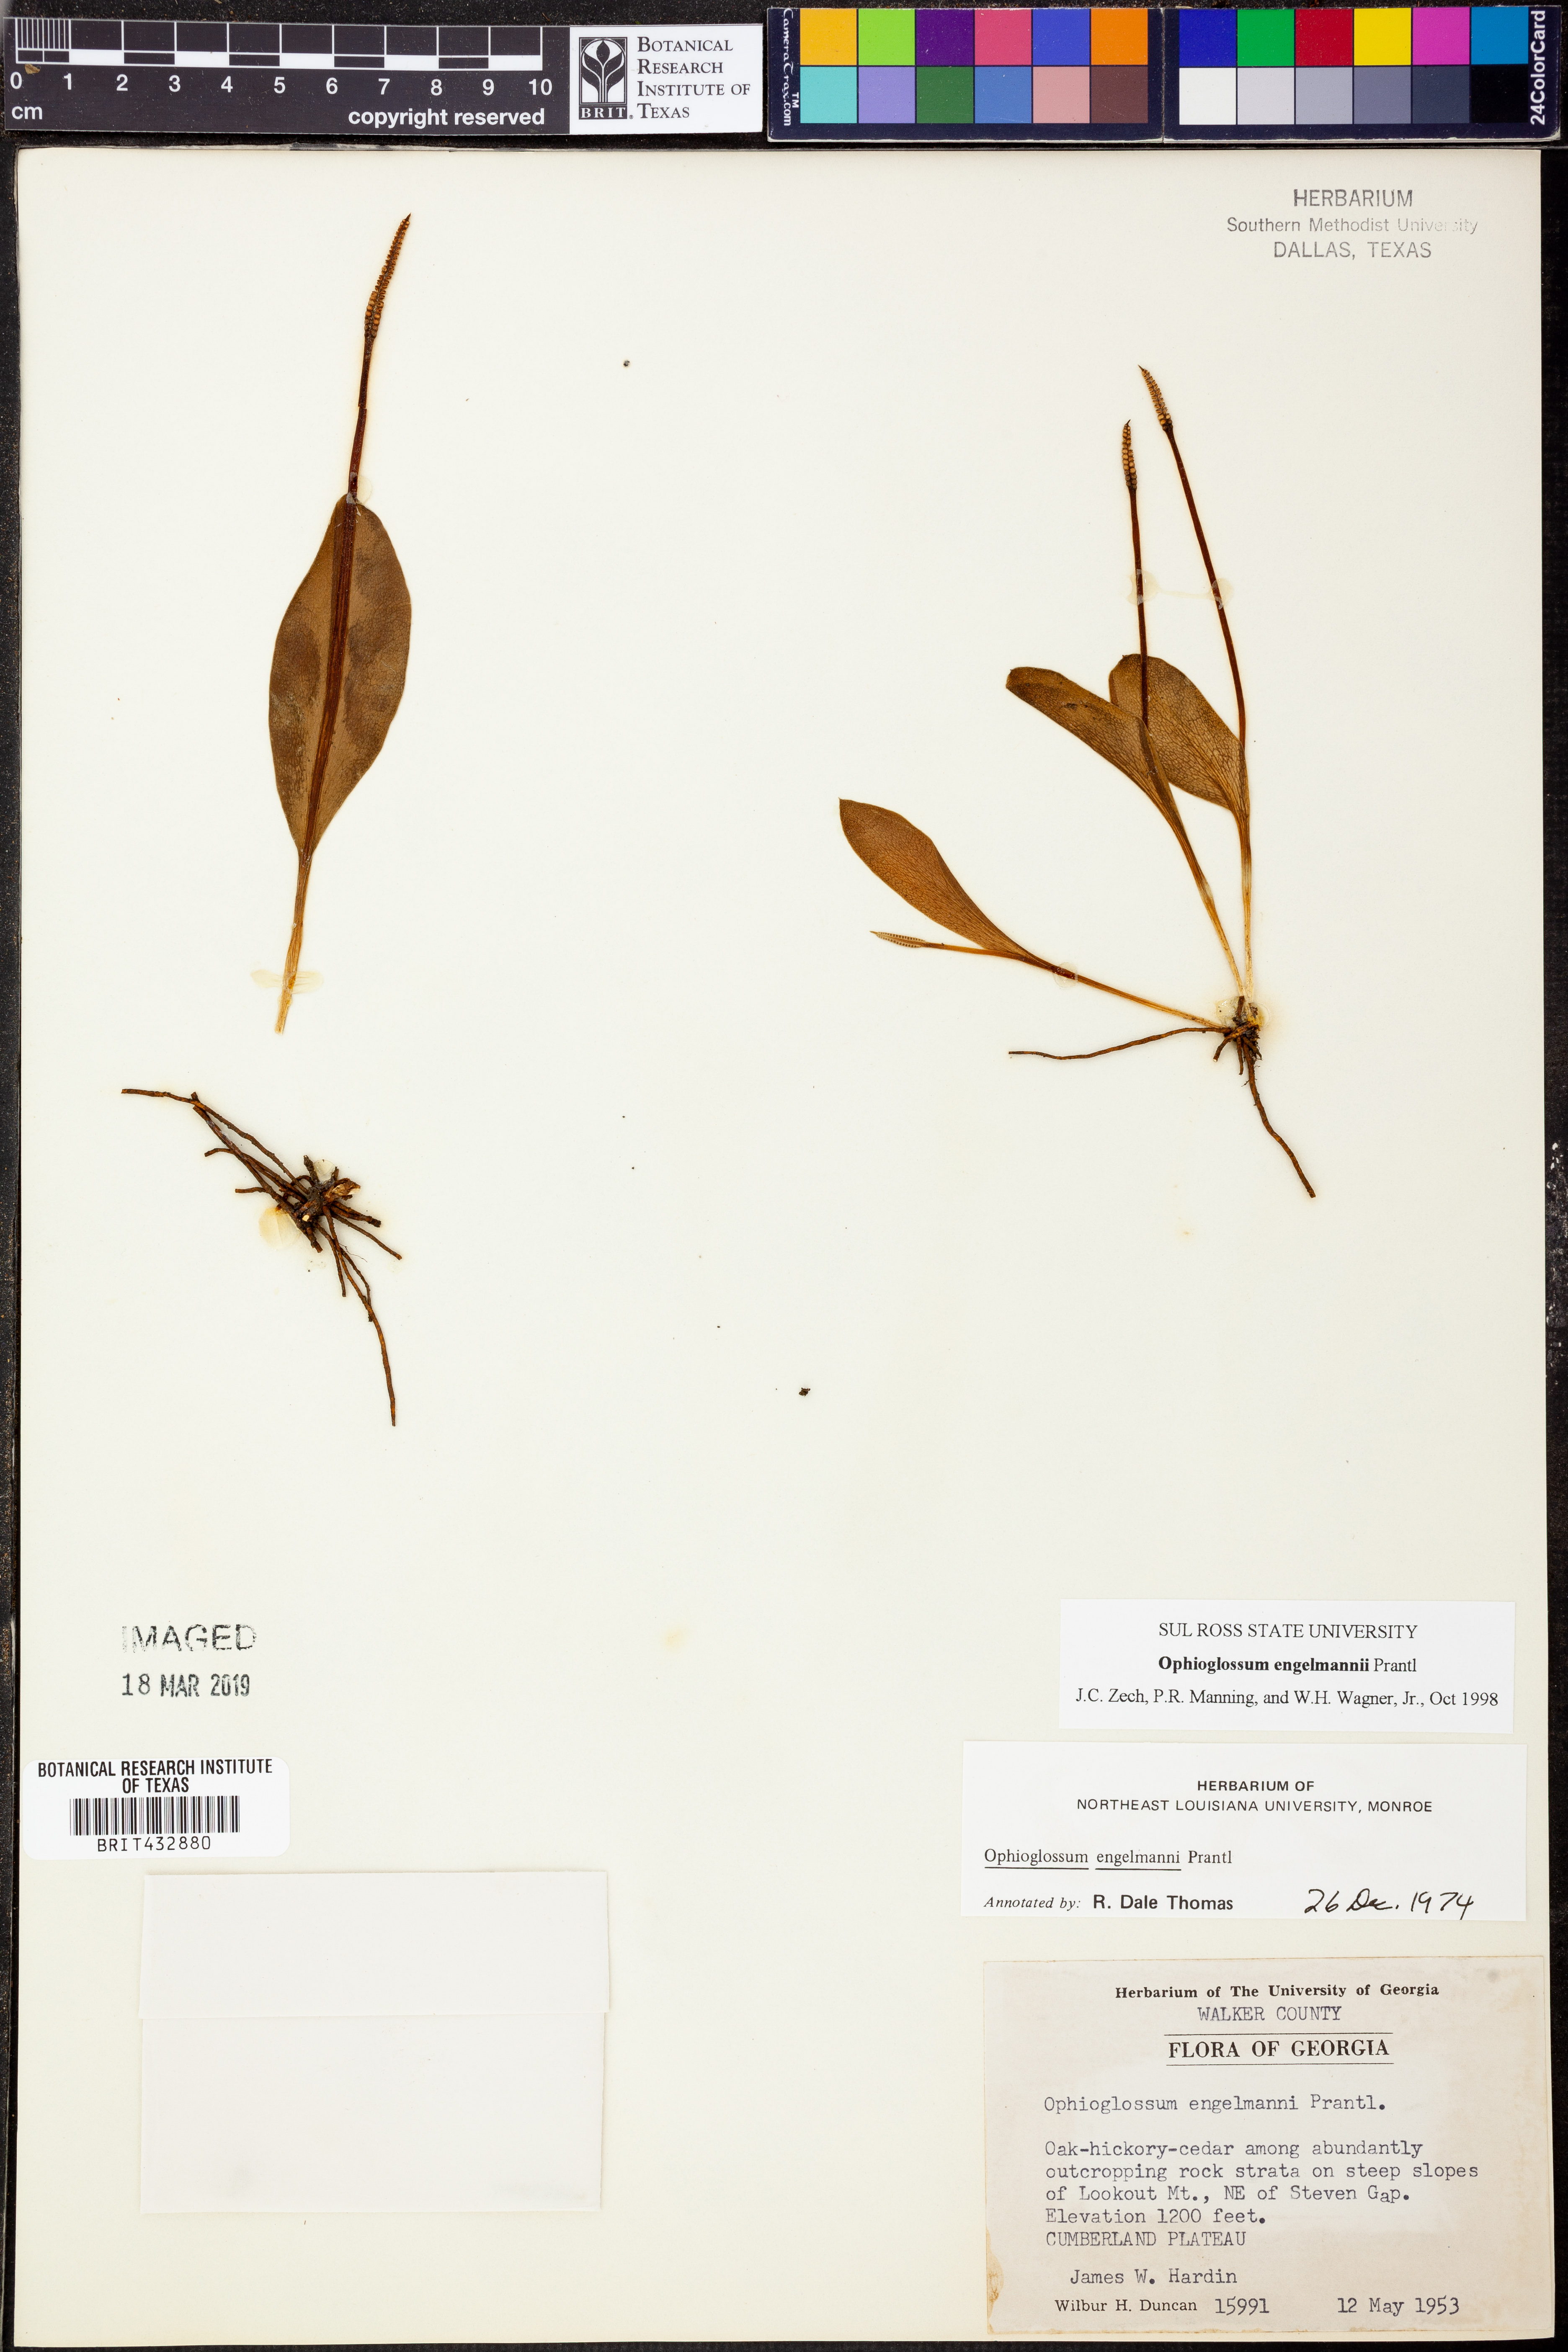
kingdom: Plantae
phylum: Tracheophyta
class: Polypodiopsida
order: Ophioglossales
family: Ophioglossaceae
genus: Ophioglossum
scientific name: Ophioglossum engelmannii
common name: Limestone adder's-tongue
